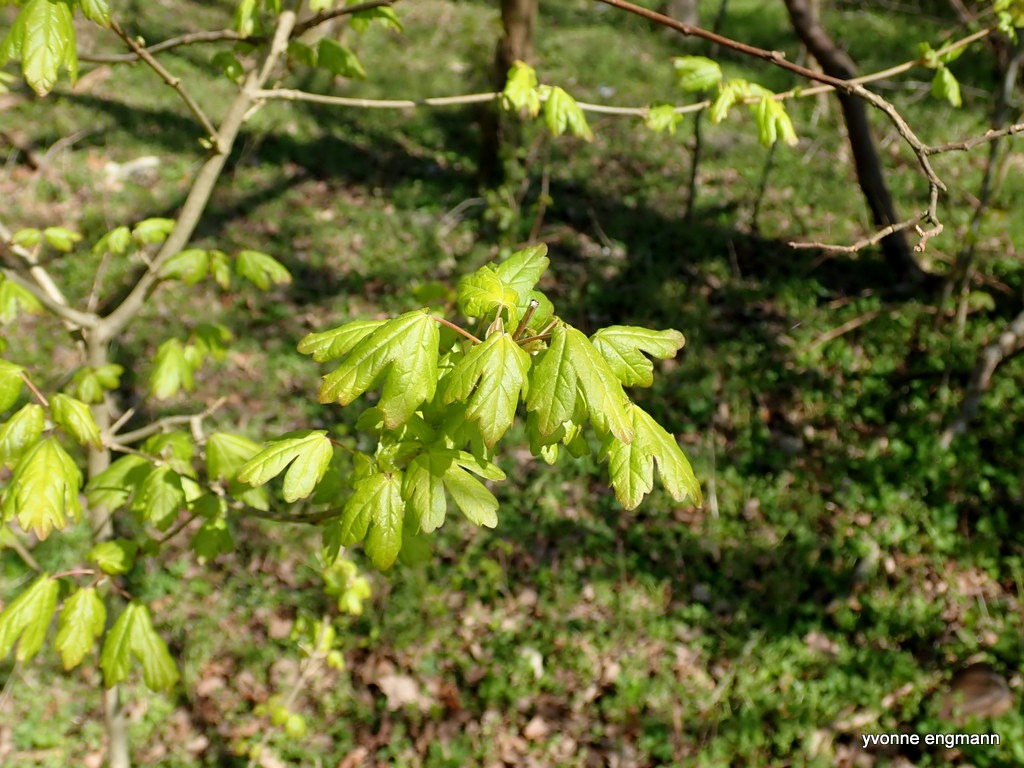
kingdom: Plantae
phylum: Tracheophyta
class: Magnoliopsida
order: Sapindales
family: Sapindaceae
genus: Acer
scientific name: Acer campestre
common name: Navr
